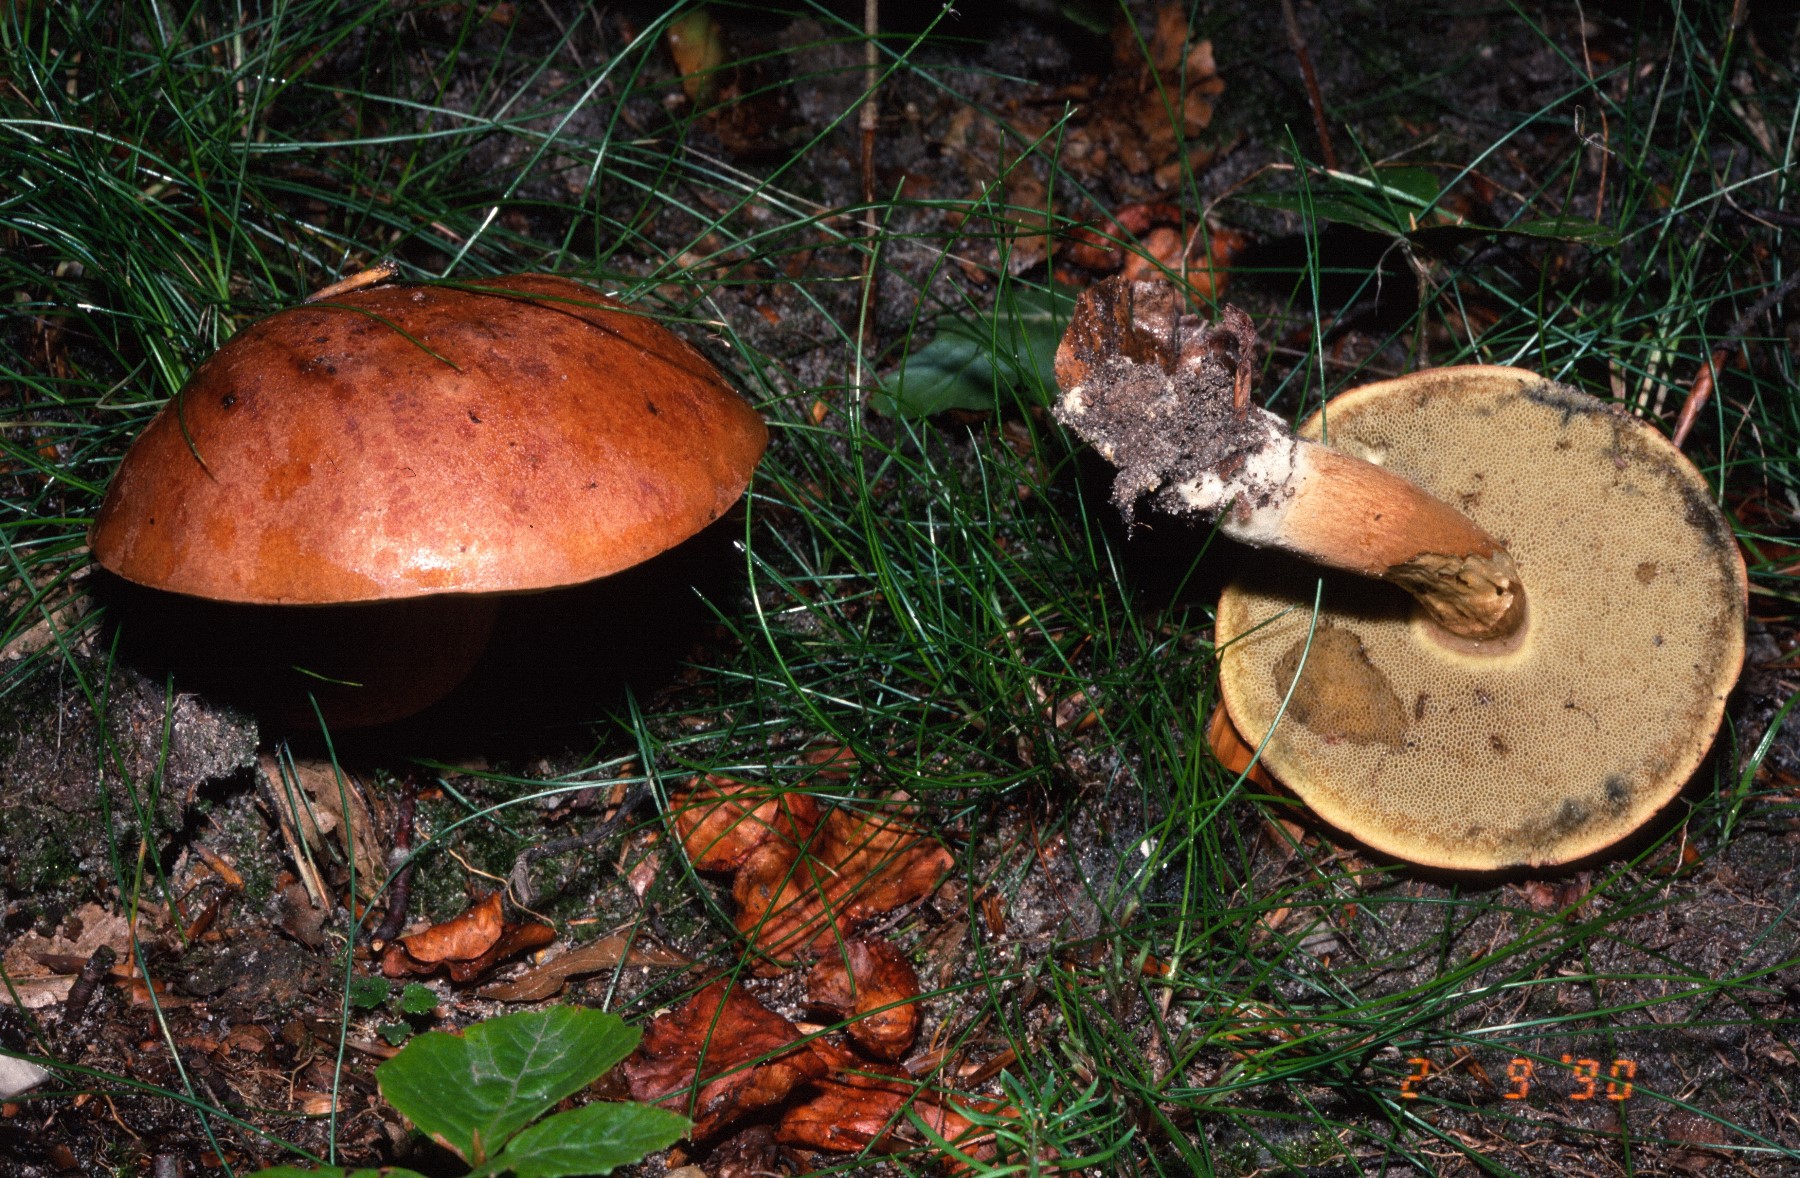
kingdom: Fungi
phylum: Basidiomycota
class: Agaricomycetes
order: Boletales
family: Boletaceae
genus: Imleria
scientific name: Imleria badia
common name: brunstokket rørhat
